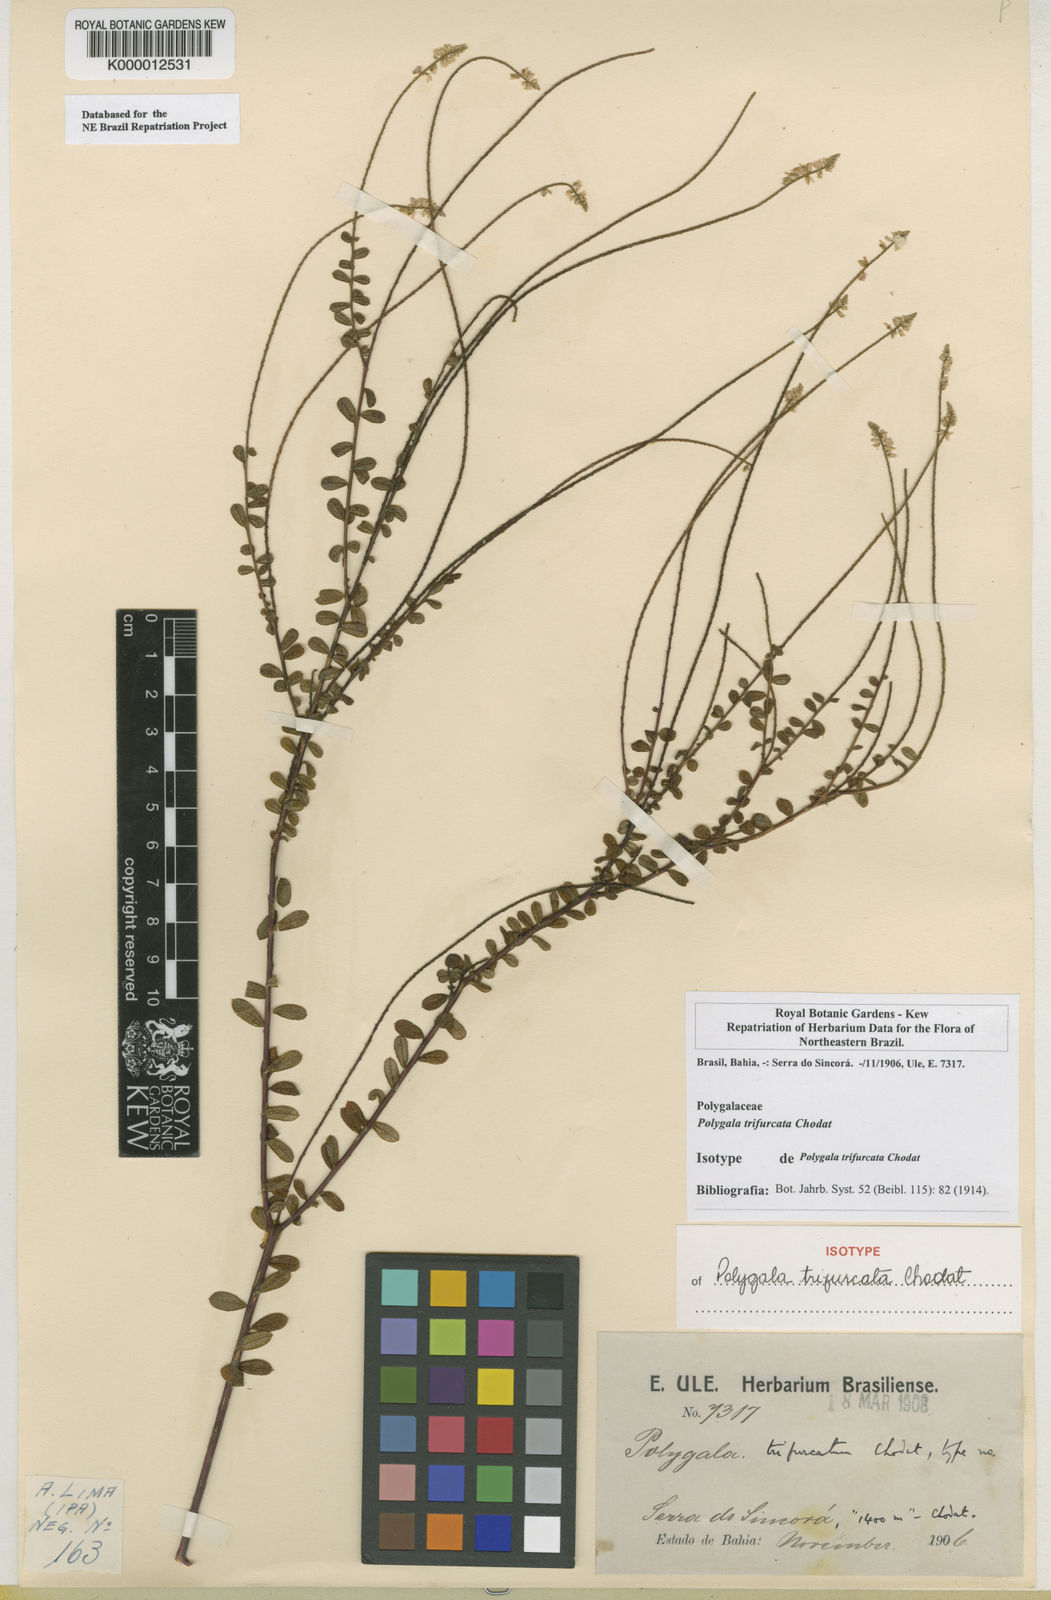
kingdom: Plantae
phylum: Tracheophyta
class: Magnoliopsida
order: Fabales
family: Polygalaceae
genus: Polygala
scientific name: Polygala trifurcata
